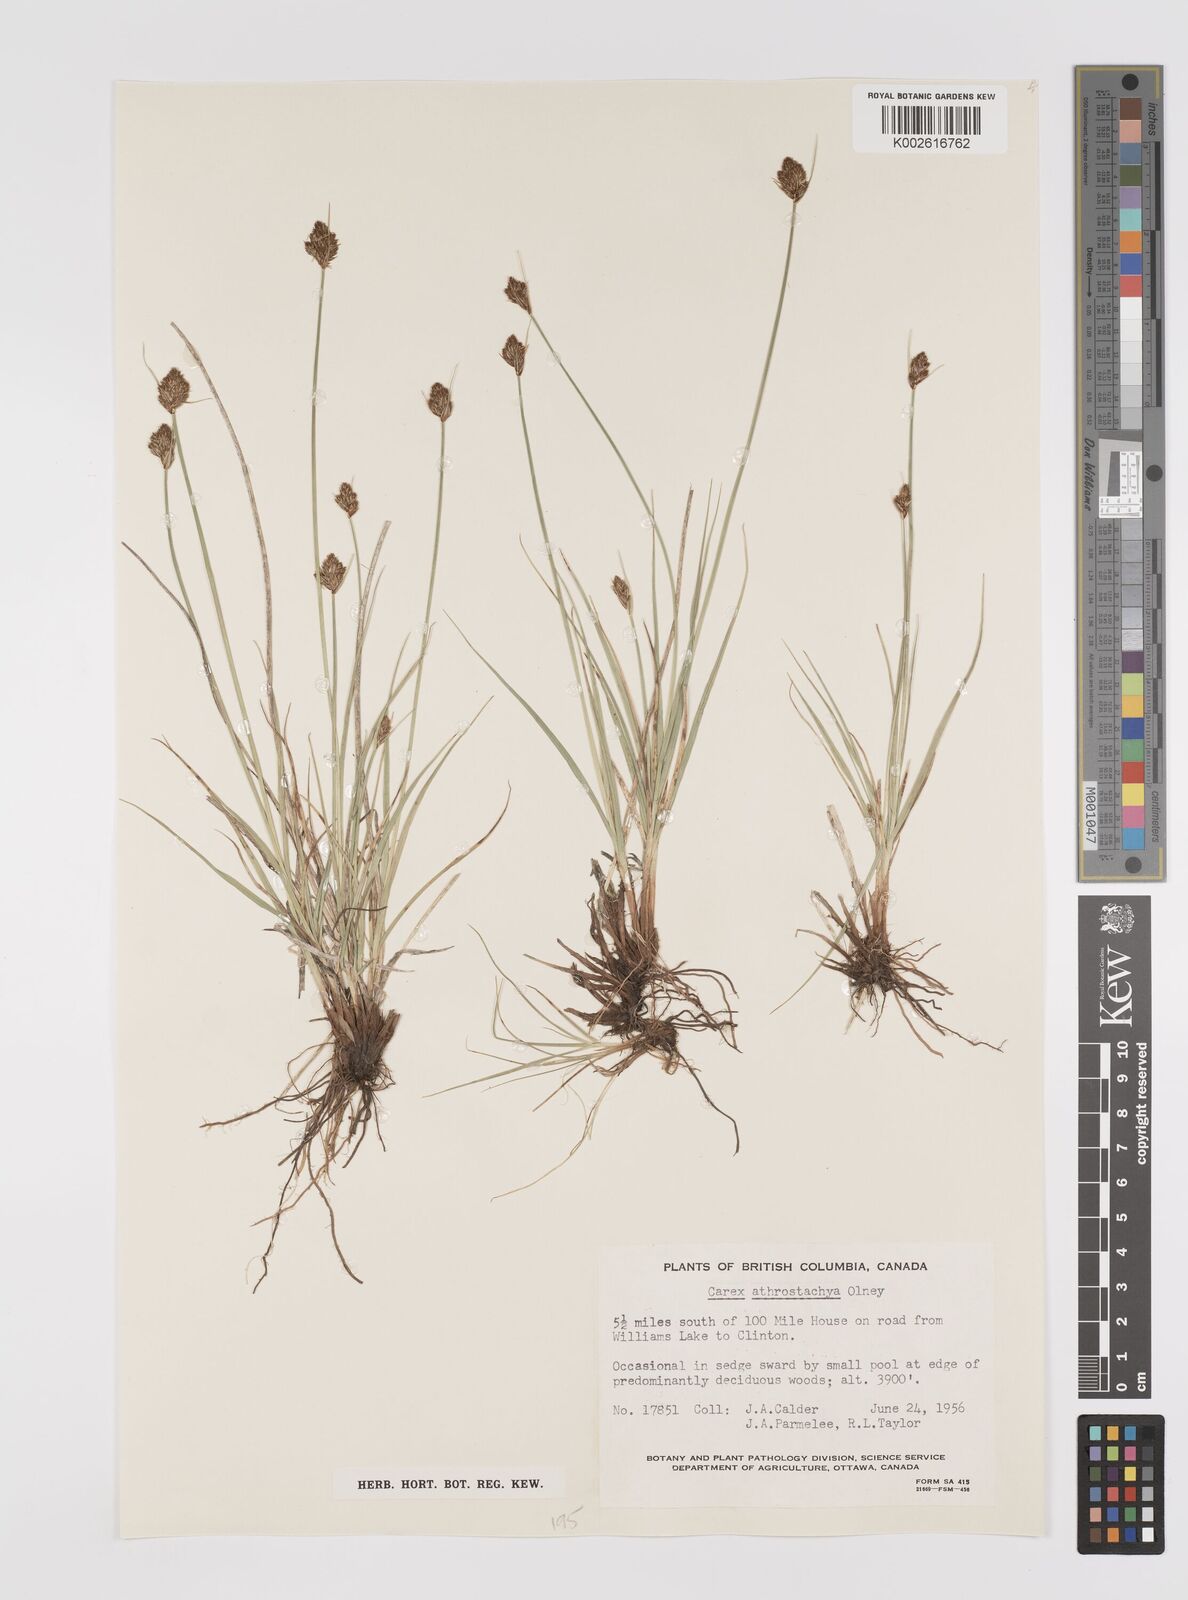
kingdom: Plantae
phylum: Tracheophyta
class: Liliopsida
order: Poales
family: Cyperaceae
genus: Carex
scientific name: Carex athrostachya
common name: Slenderbeak sedge
